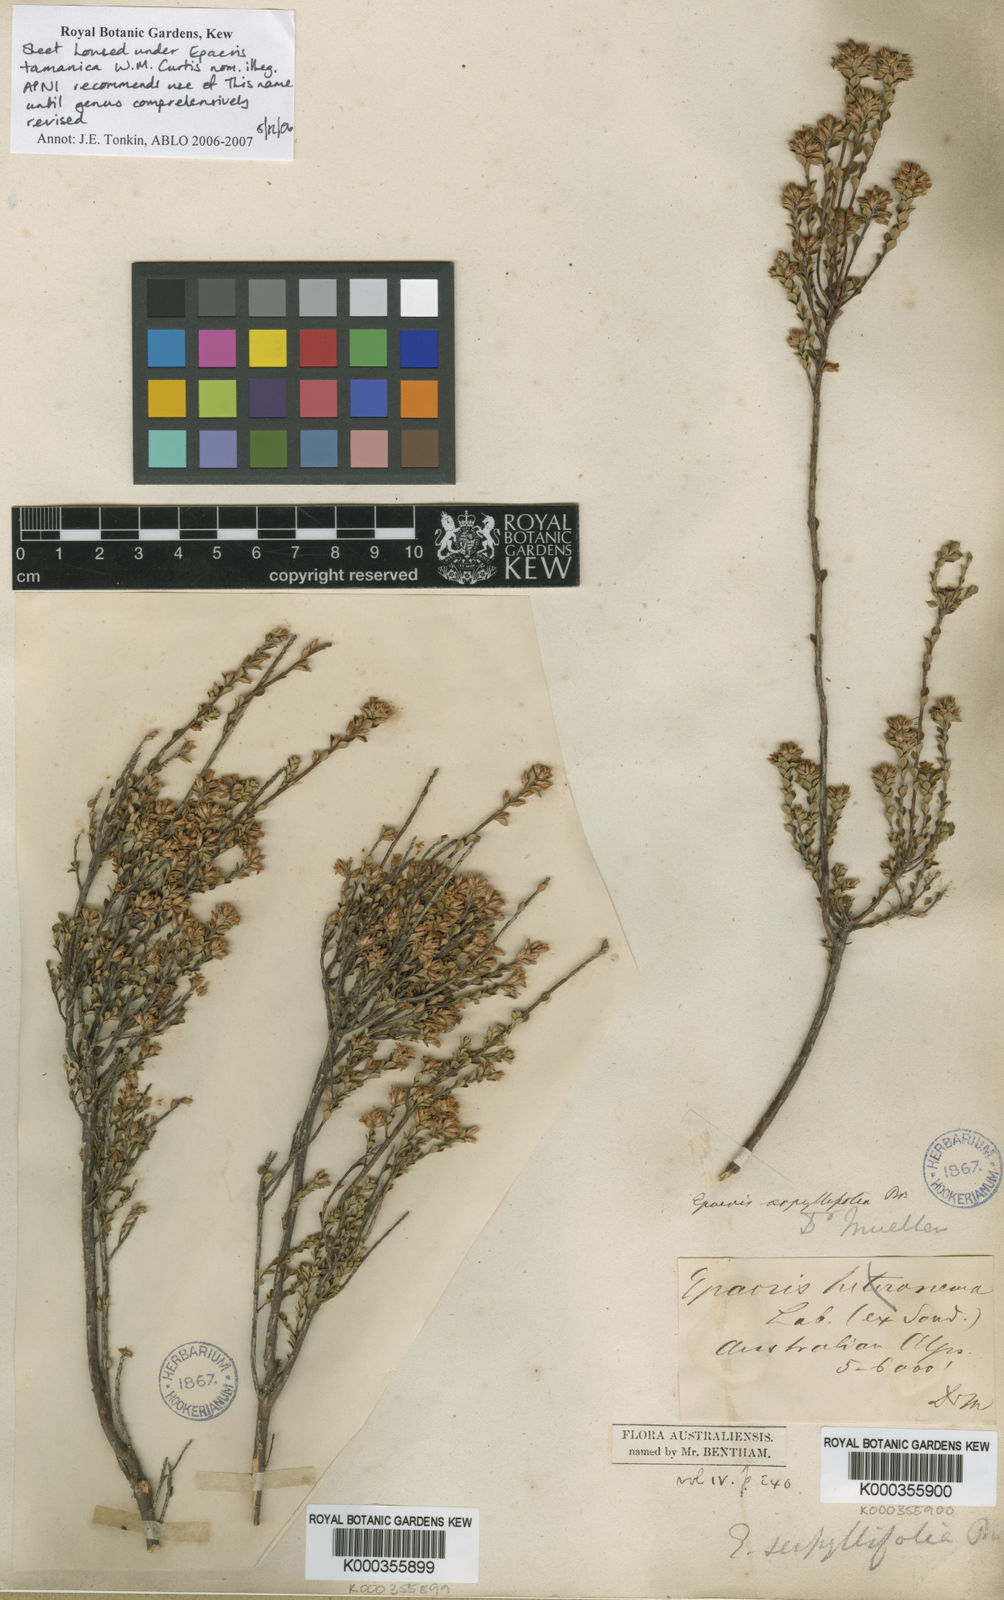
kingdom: Plantae
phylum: Tracheophyta
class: Magnoliopsida
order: Ericales
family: Ericaceae
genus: Epacris
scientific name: Epacris serpyllifolia
